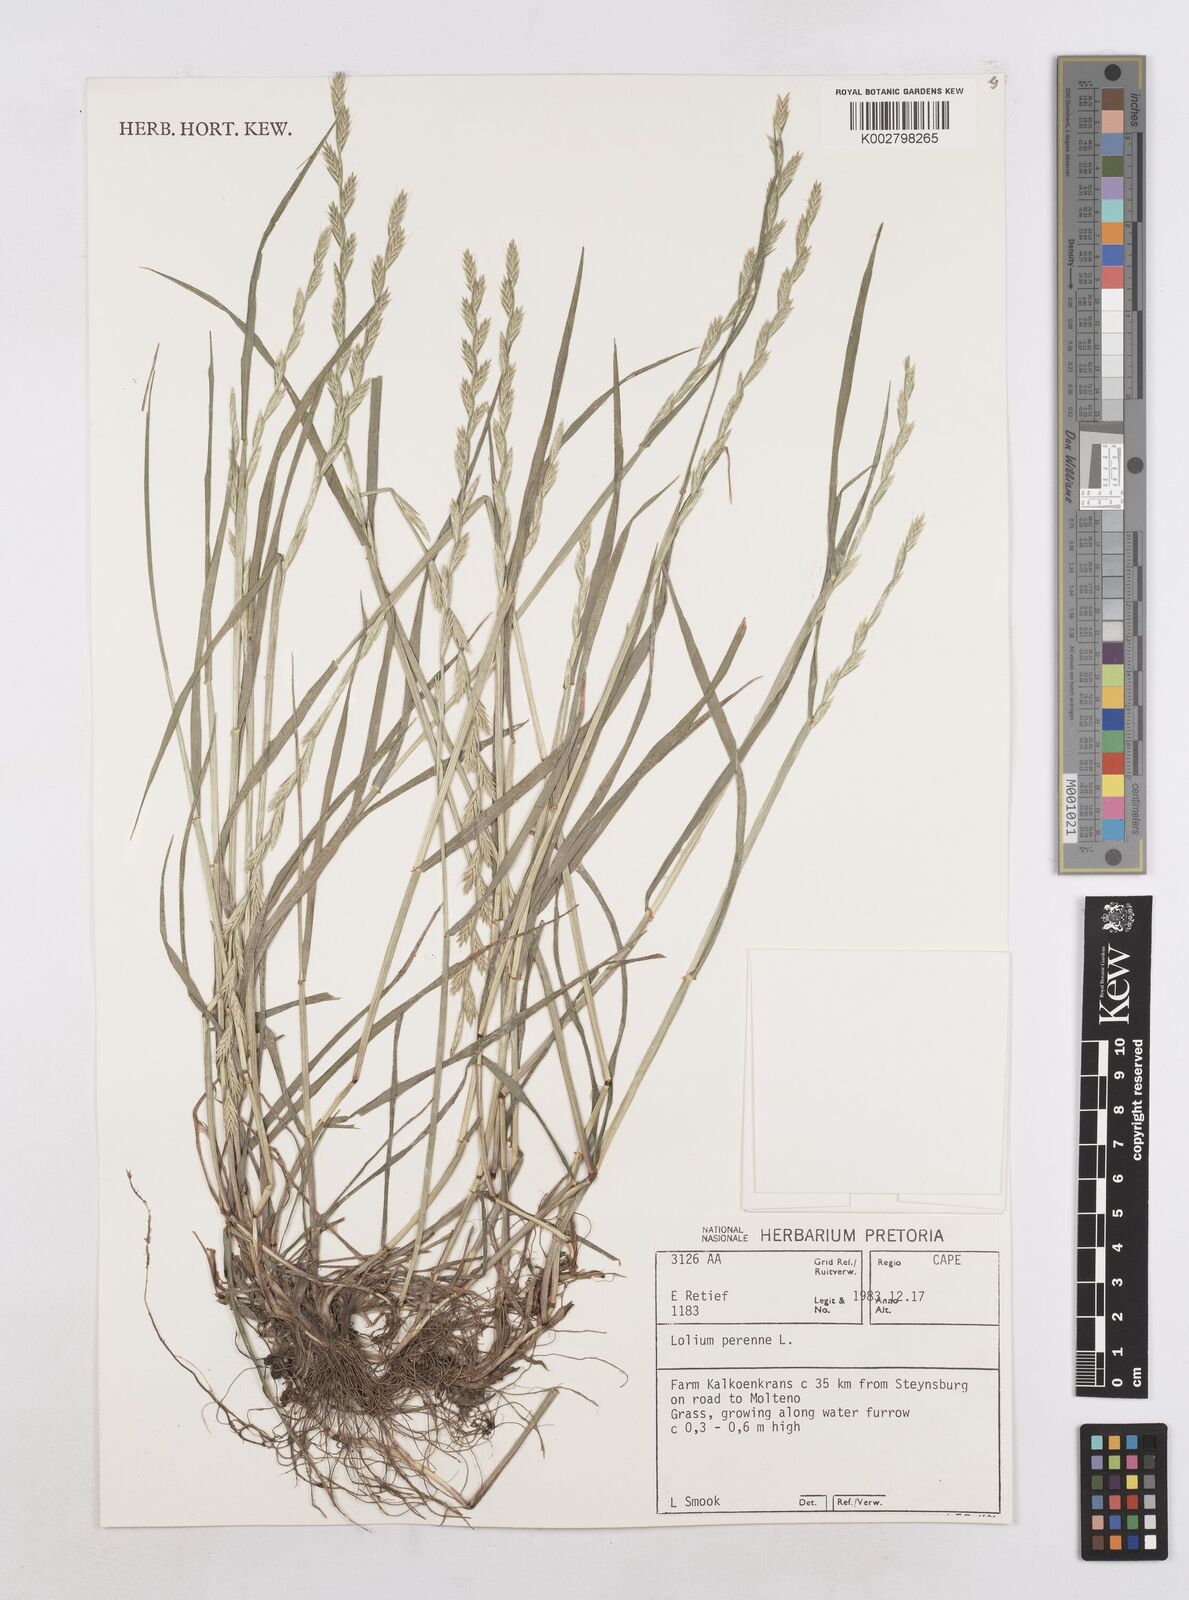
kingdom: Plantae
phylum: Tracheophyta
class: Liliopsida
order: Poales
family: Poaceae
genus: Lolium
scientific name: Lolium perenne
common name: Perennial ryegrass
